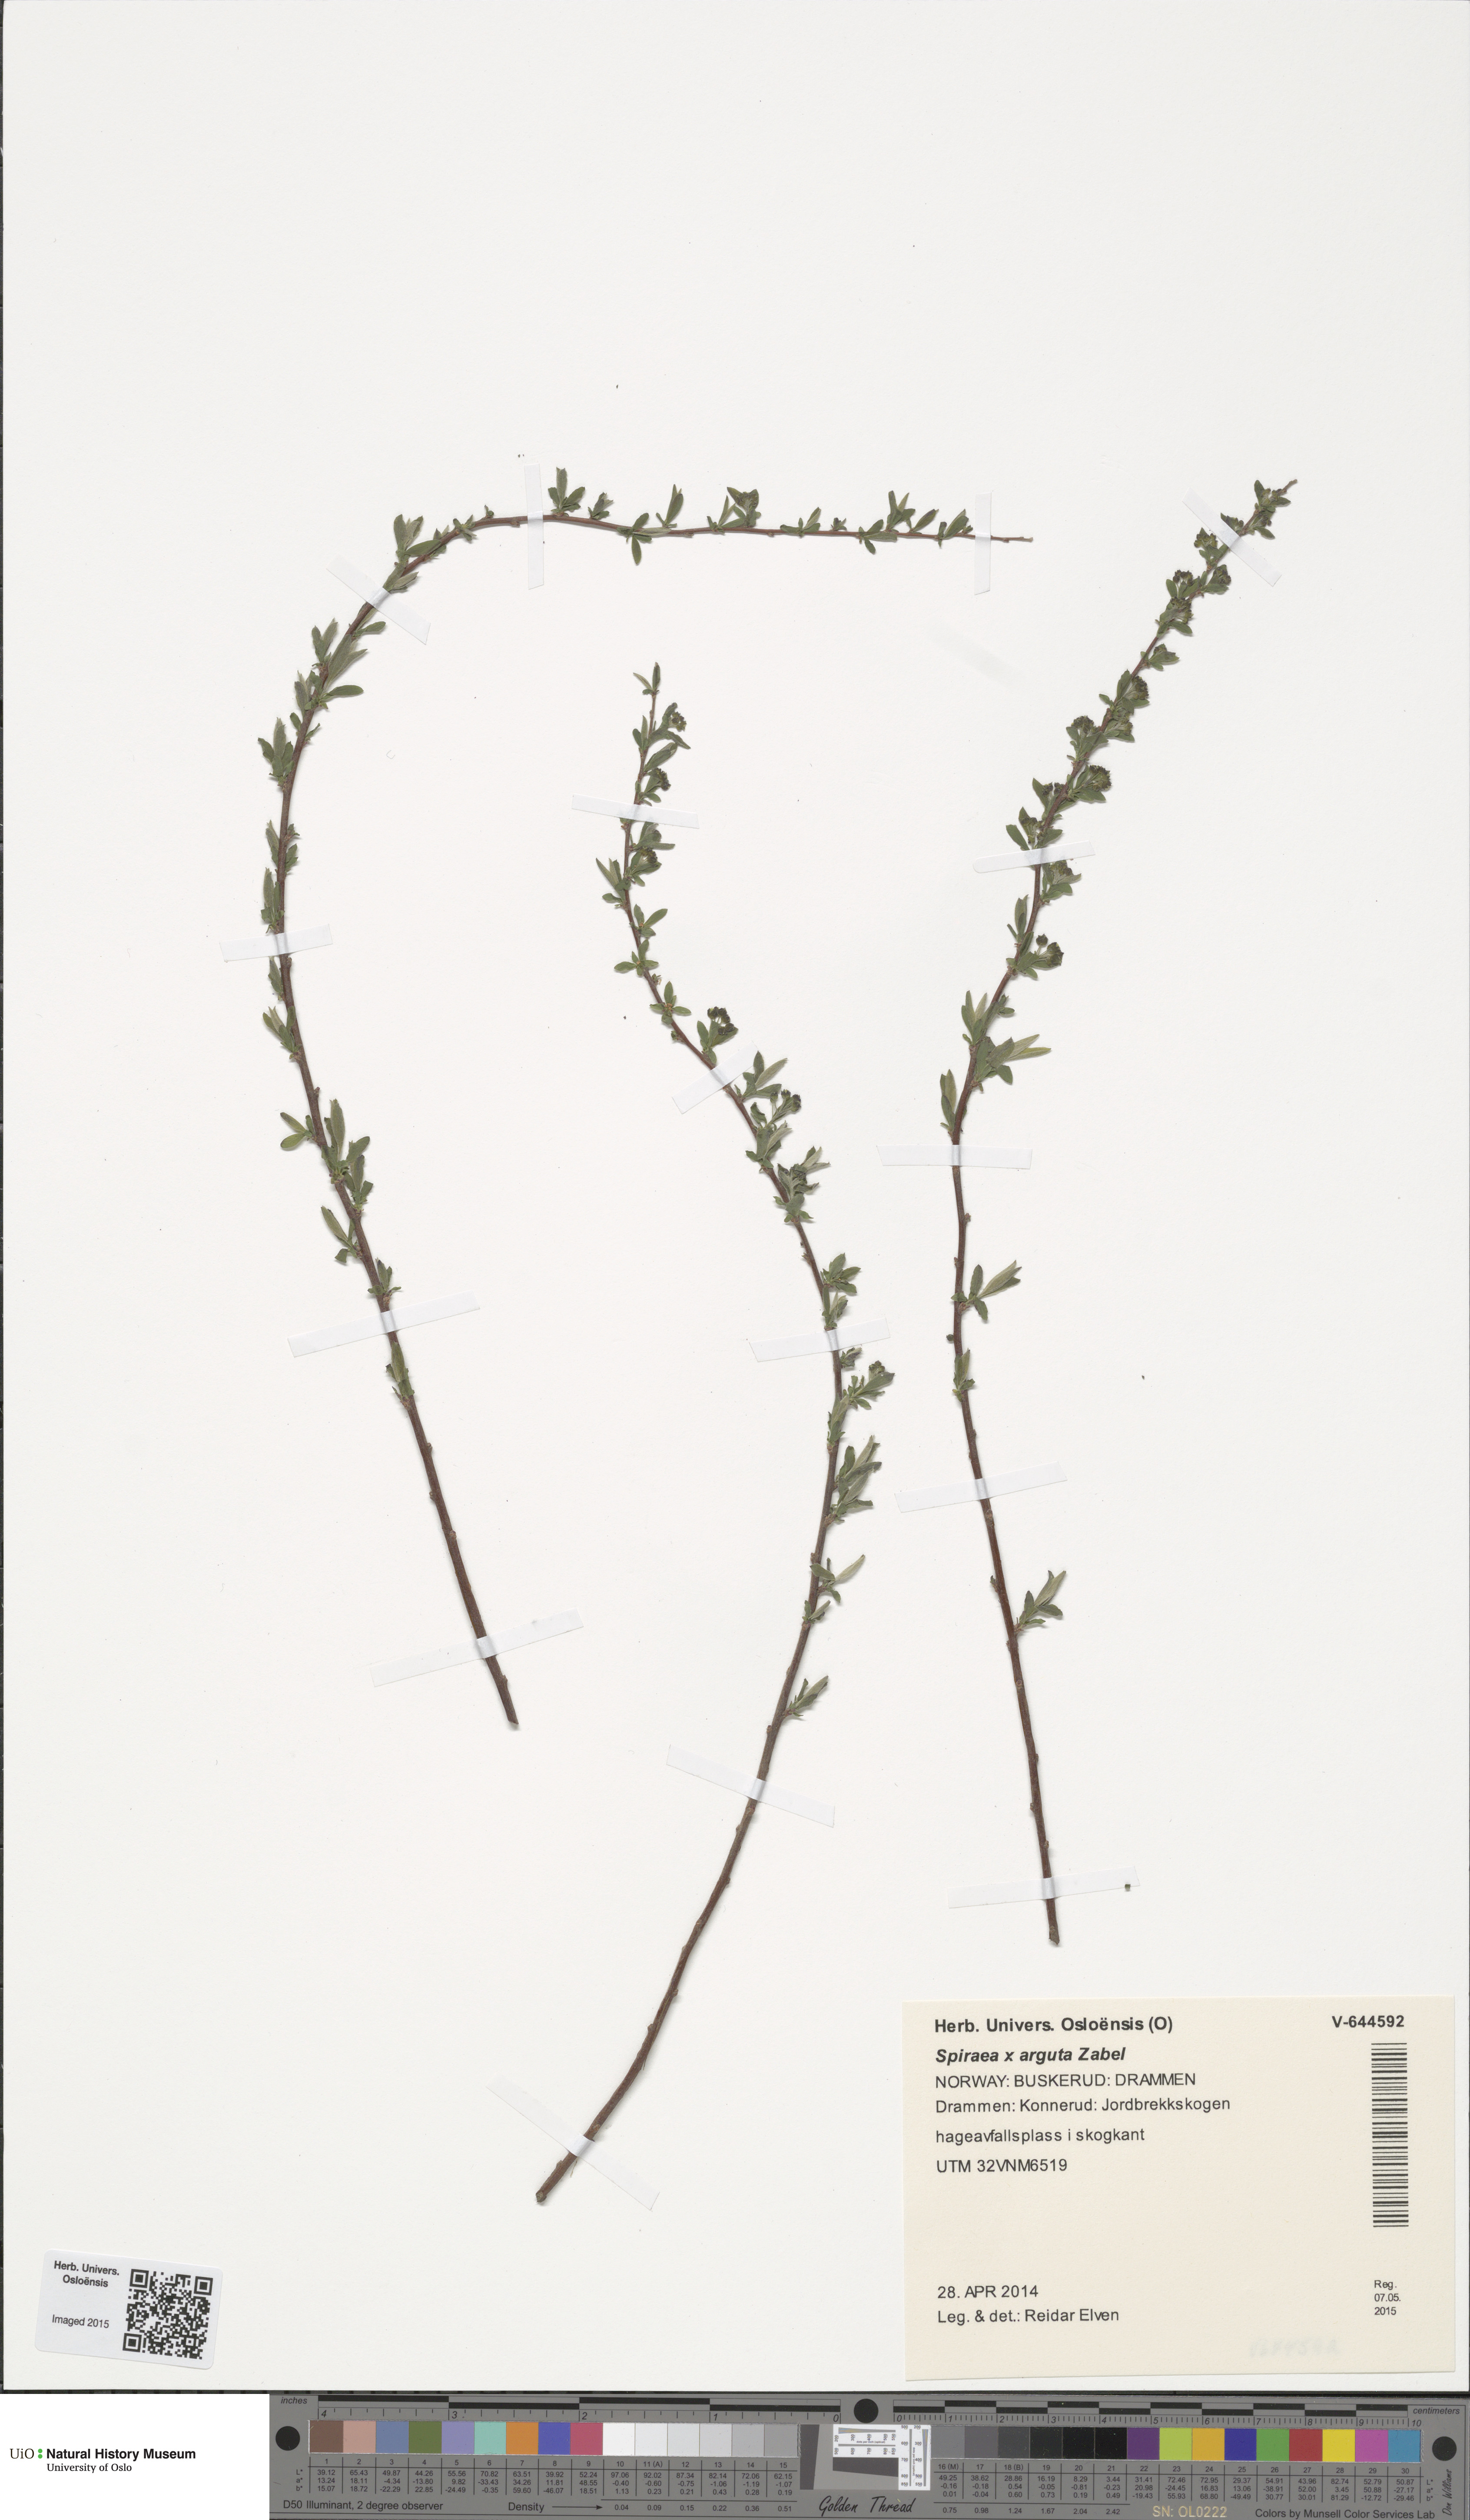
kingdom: Plantae
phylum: Tracheophyta
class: Magnoliopsida
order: Rosales
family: Rosaceae
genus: Spiraea
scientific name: Spiraea arguta
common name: Garland spiraea
